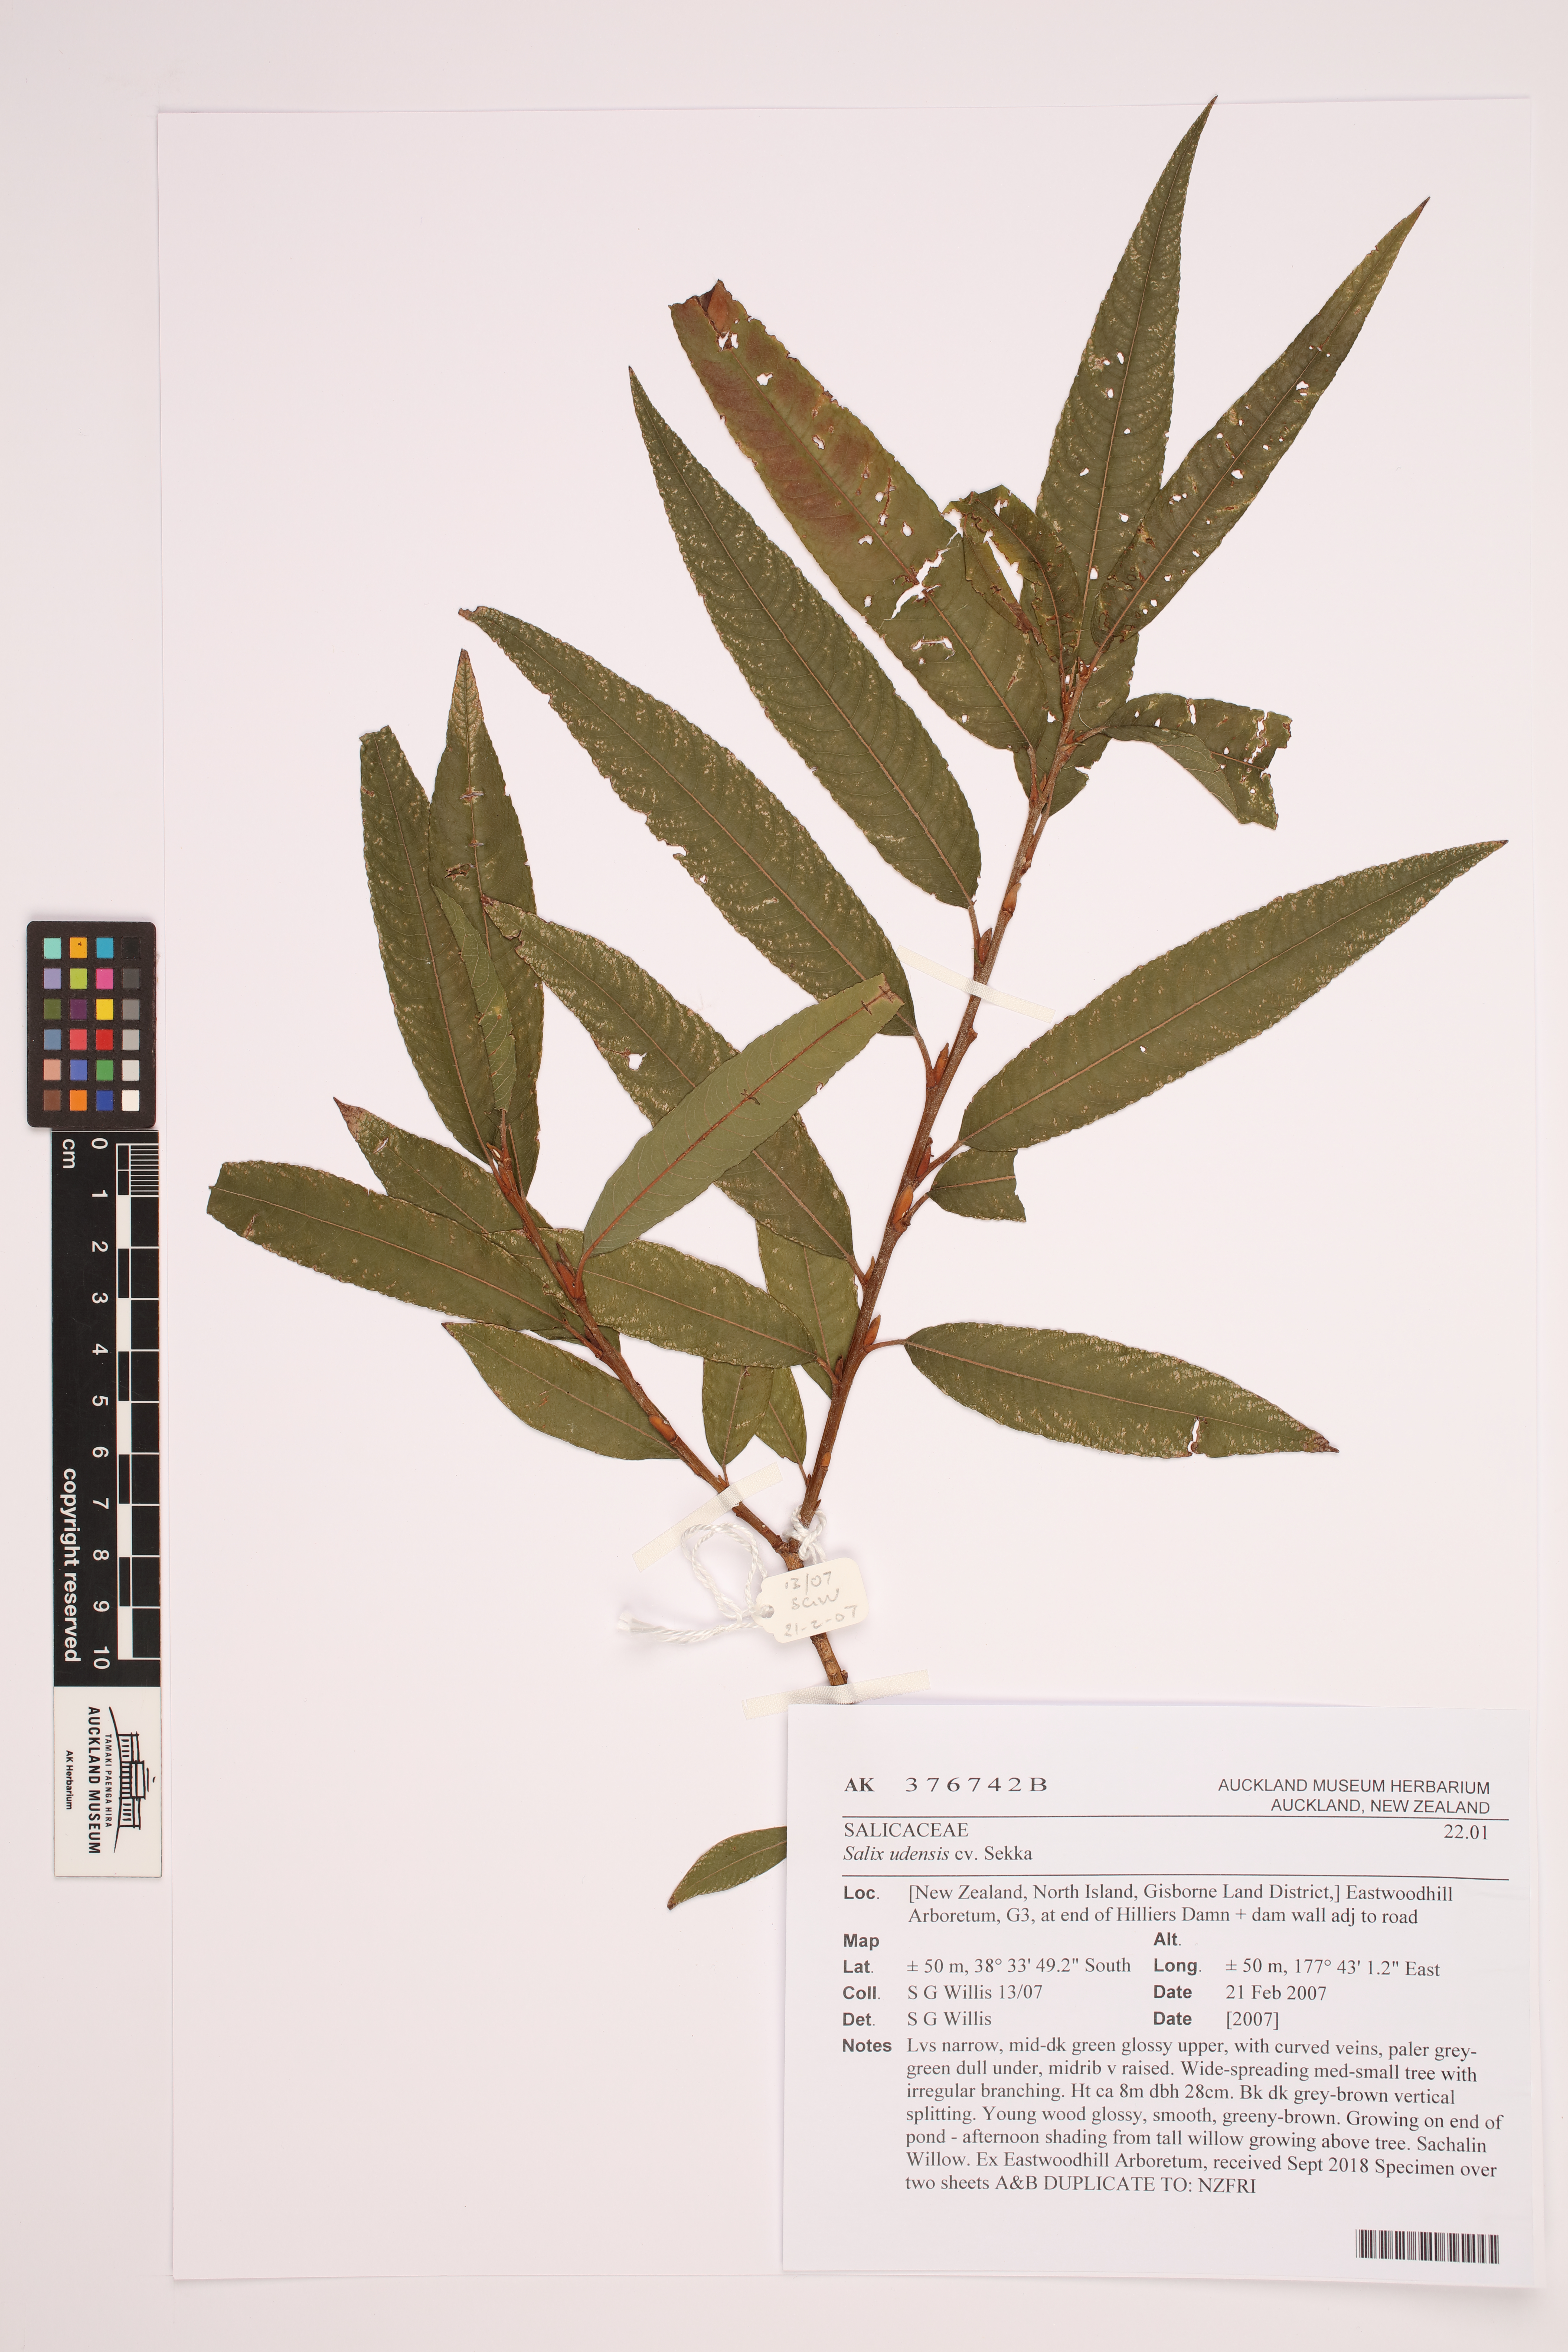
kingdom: Plantae
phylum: Tracheophyta
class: Magnoliopsida
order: Malpighiales
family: Salicaceae
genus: Salix
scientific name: Salix udensis
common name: Sachalin willow
